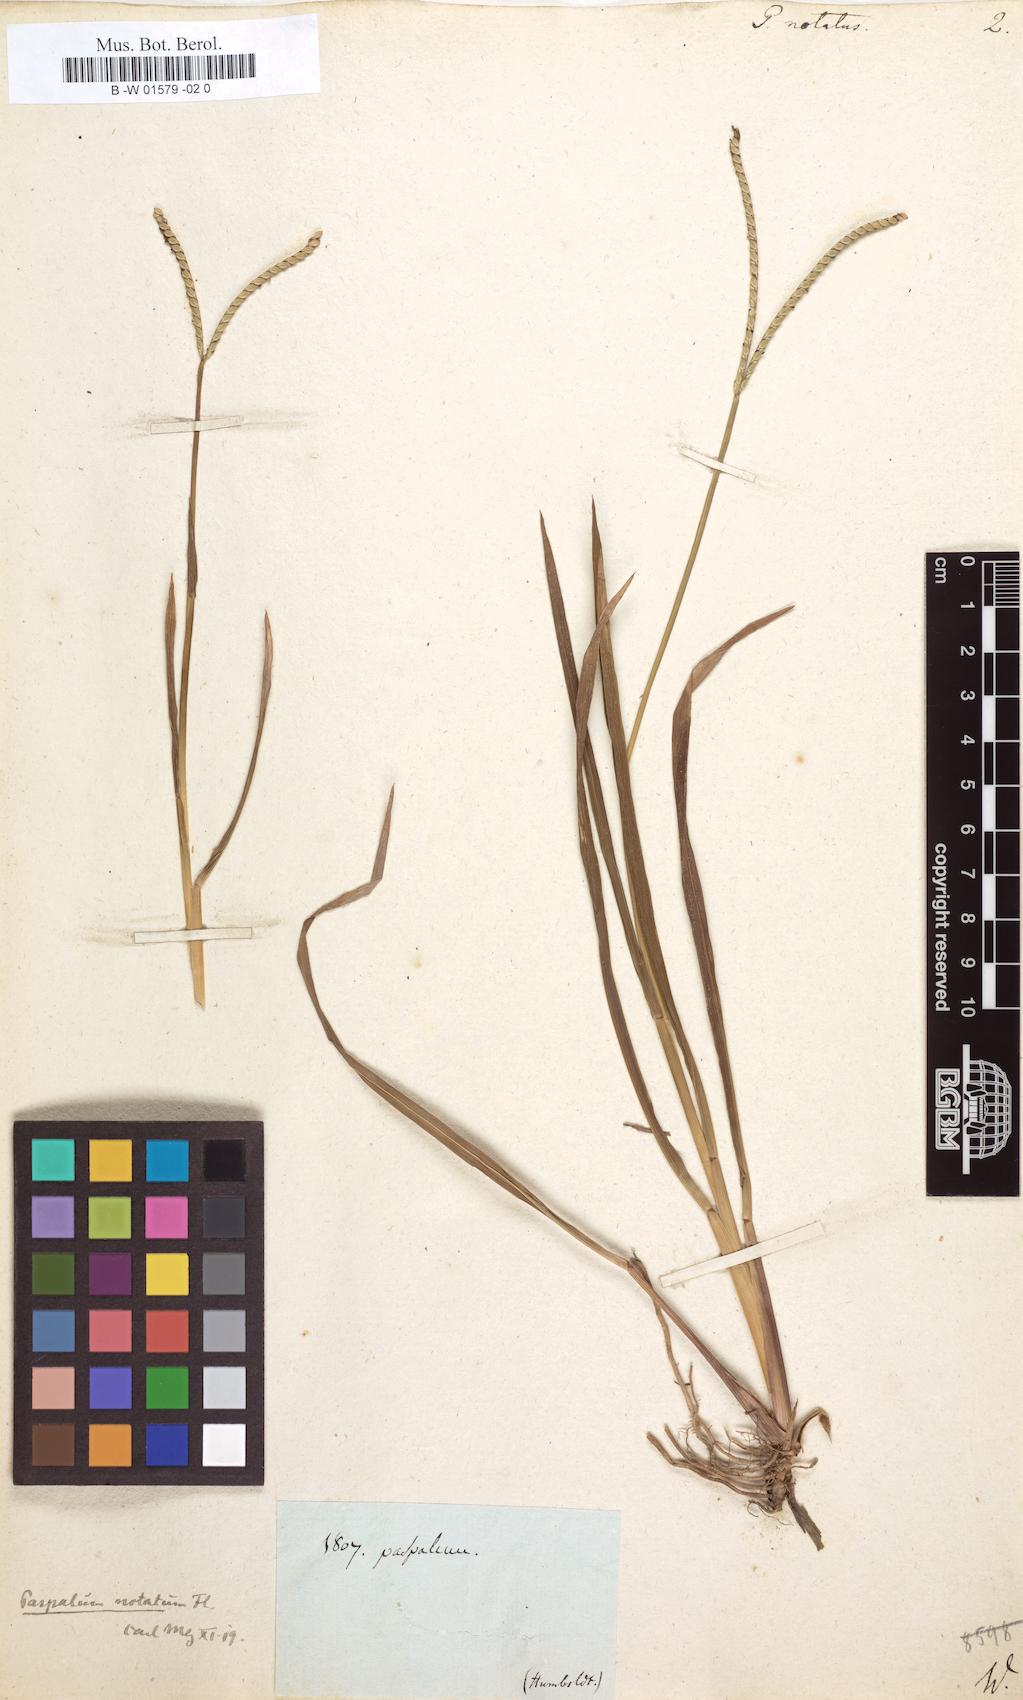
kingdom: Plantae
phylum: Tracheophyta
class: Liliopsida
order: Poales
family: Poaceae
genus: Paspalum
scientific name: Paspalum notatum
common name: Bahiagrass
